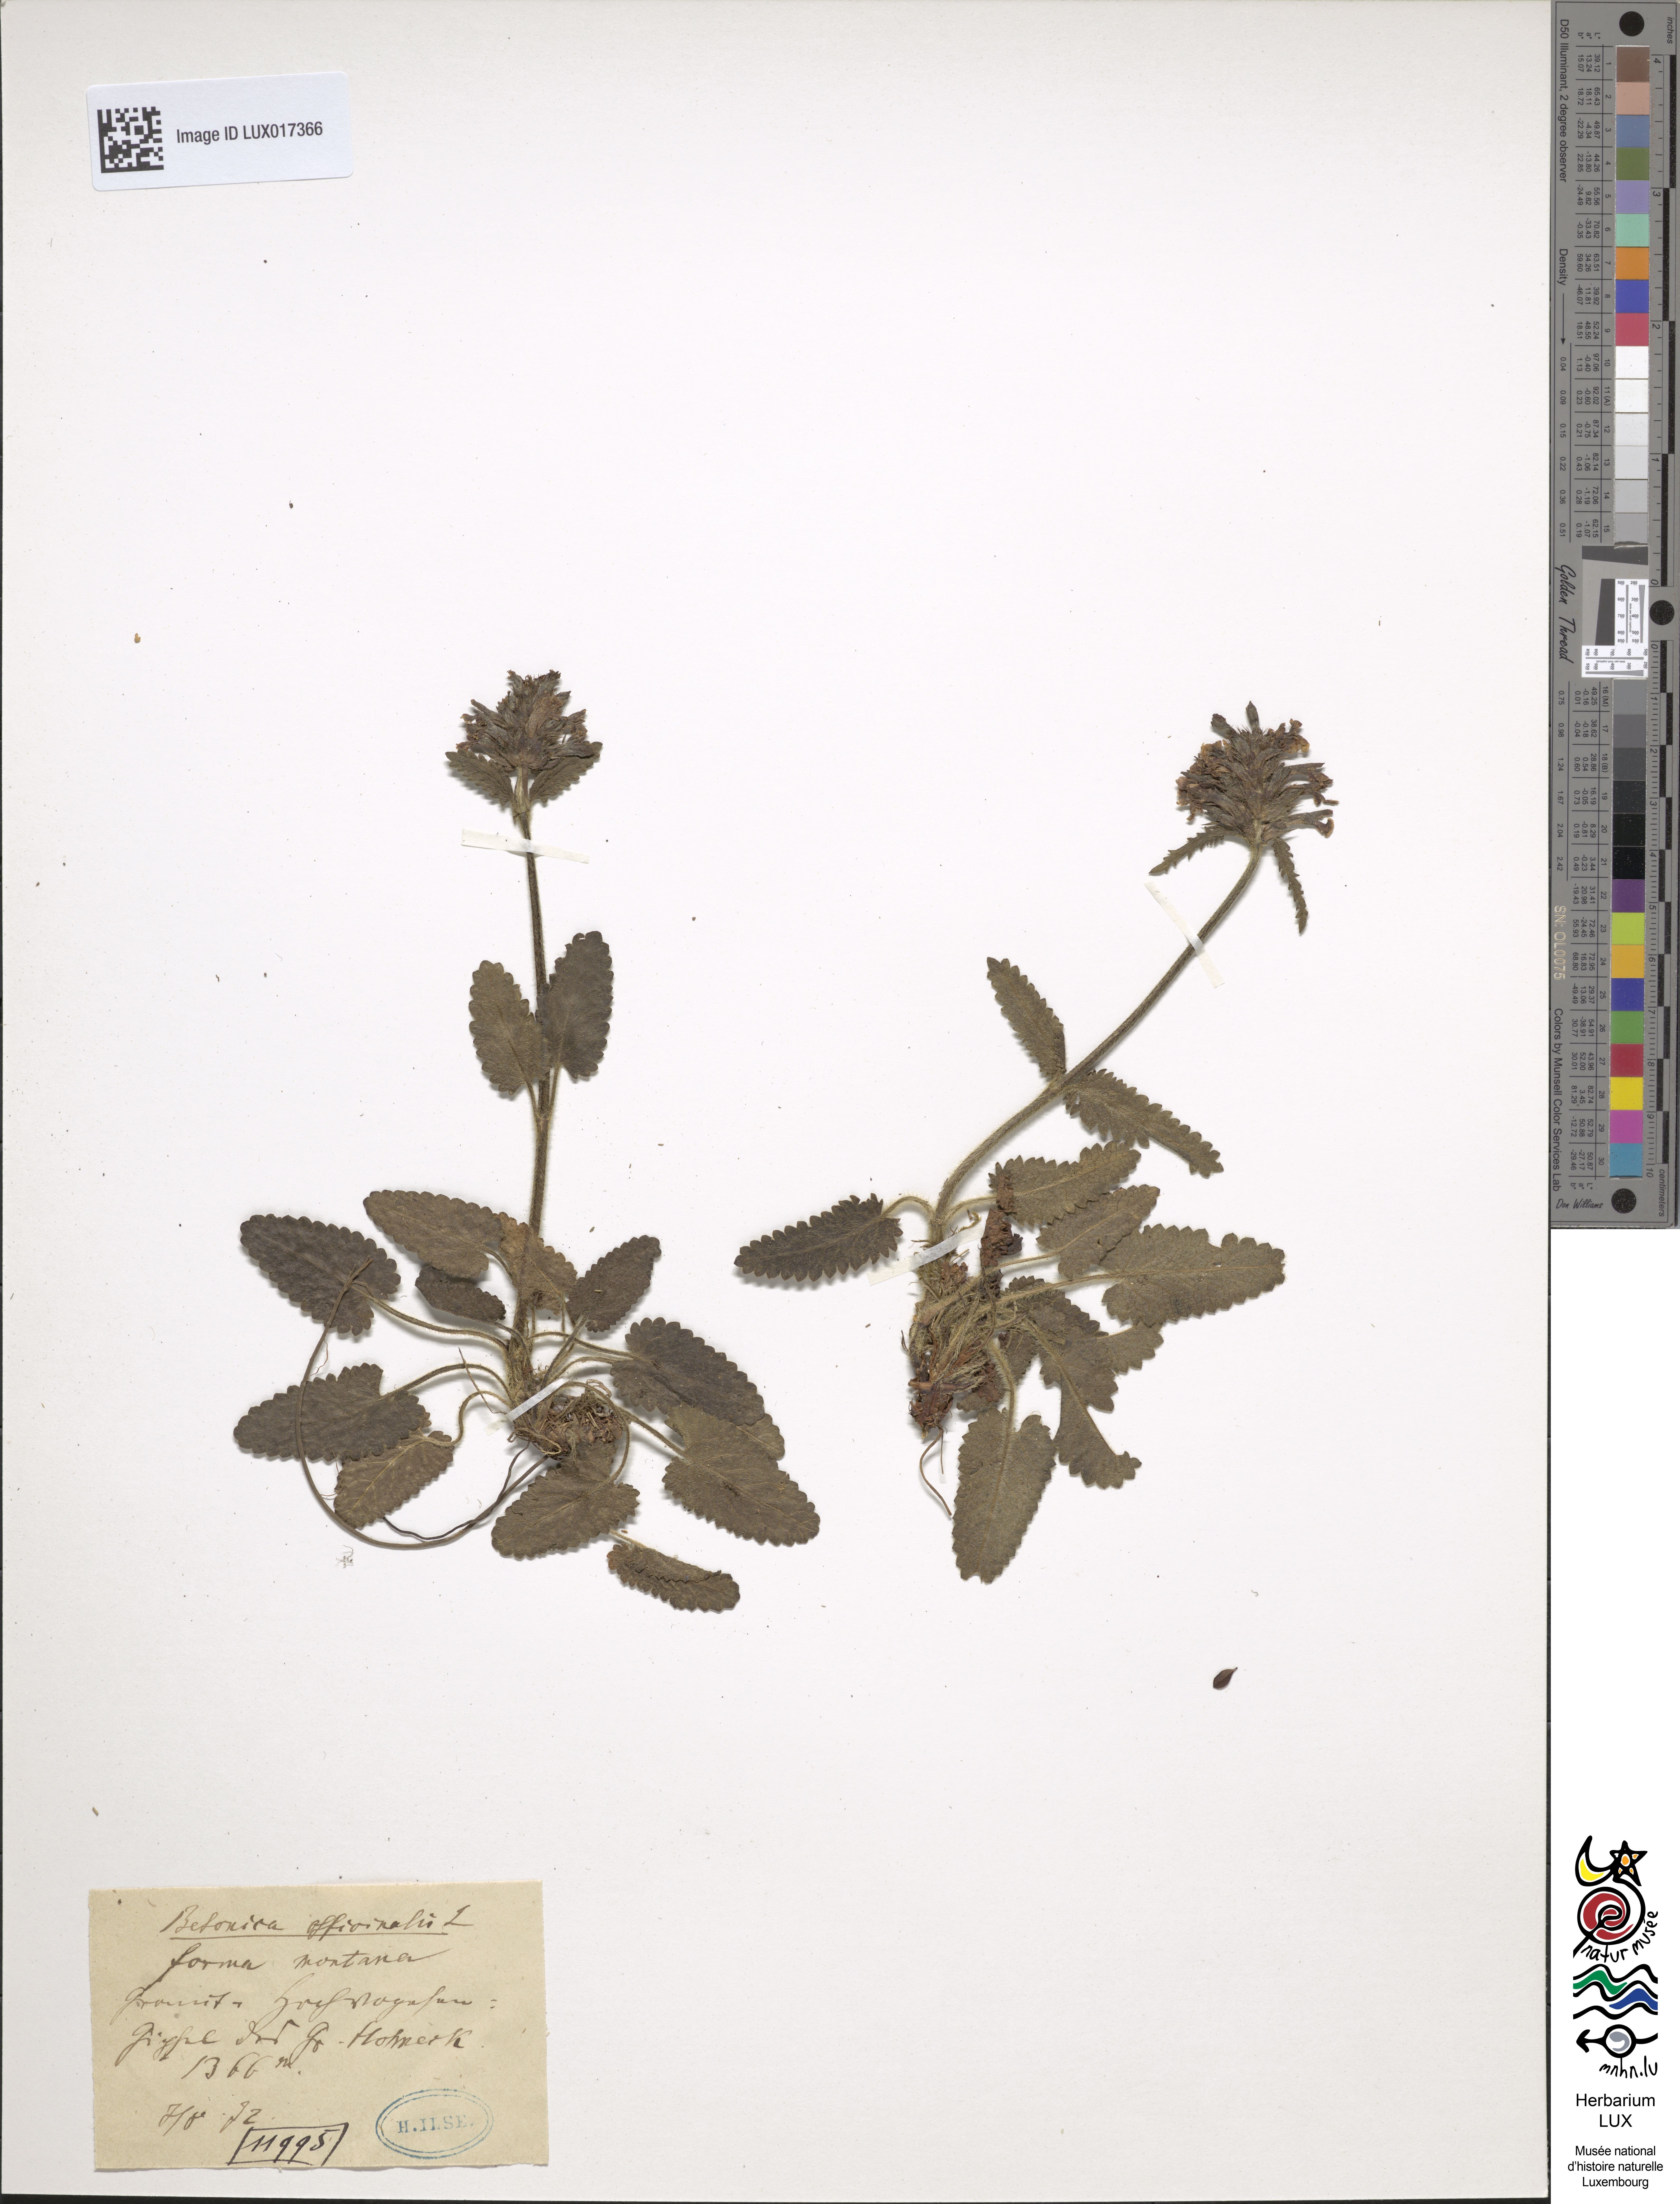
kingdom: Plantae
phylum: Tracheophyta
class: Magnoliopsida
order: Lamiales
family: Lamiaceae
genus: Betonica
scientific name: Betonica officinalis
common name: Bishop's-wort
